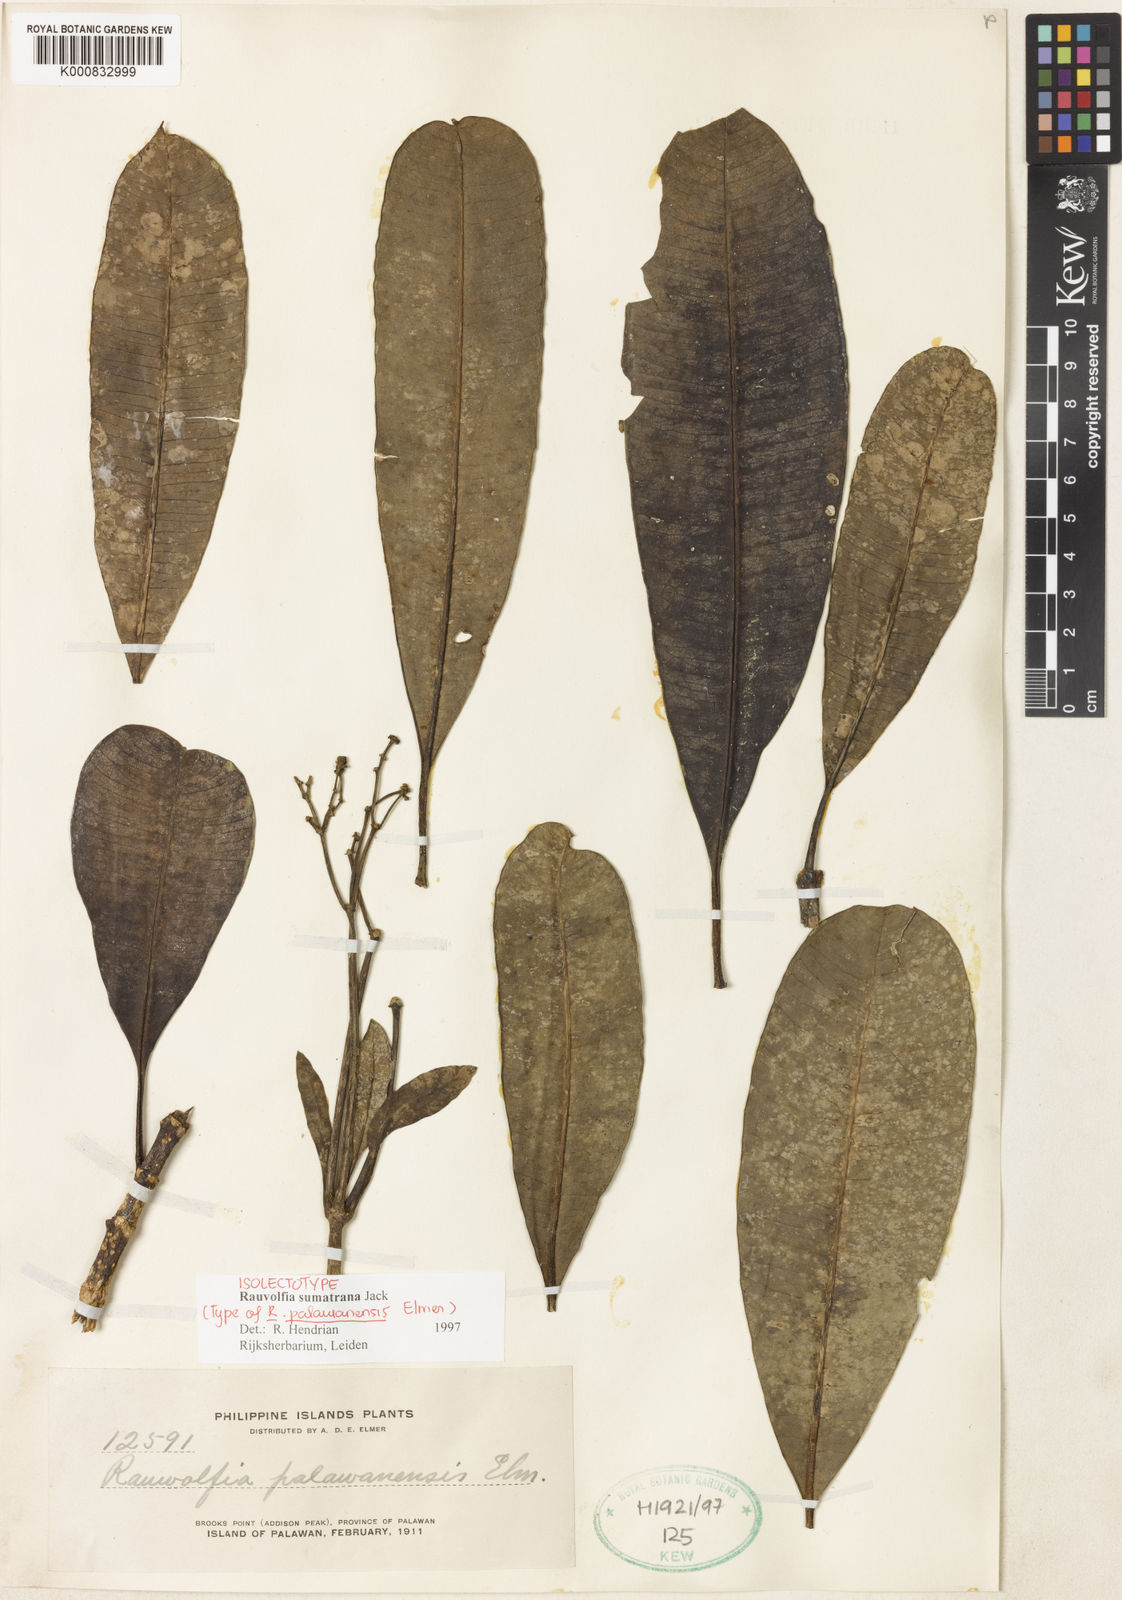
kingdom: Plantae
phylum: Tracheophyta
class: Magnoliopsida
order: Gentianales
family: Apocynaceae
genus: Rauvolfia
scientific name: Rauvolfia sumatrana
